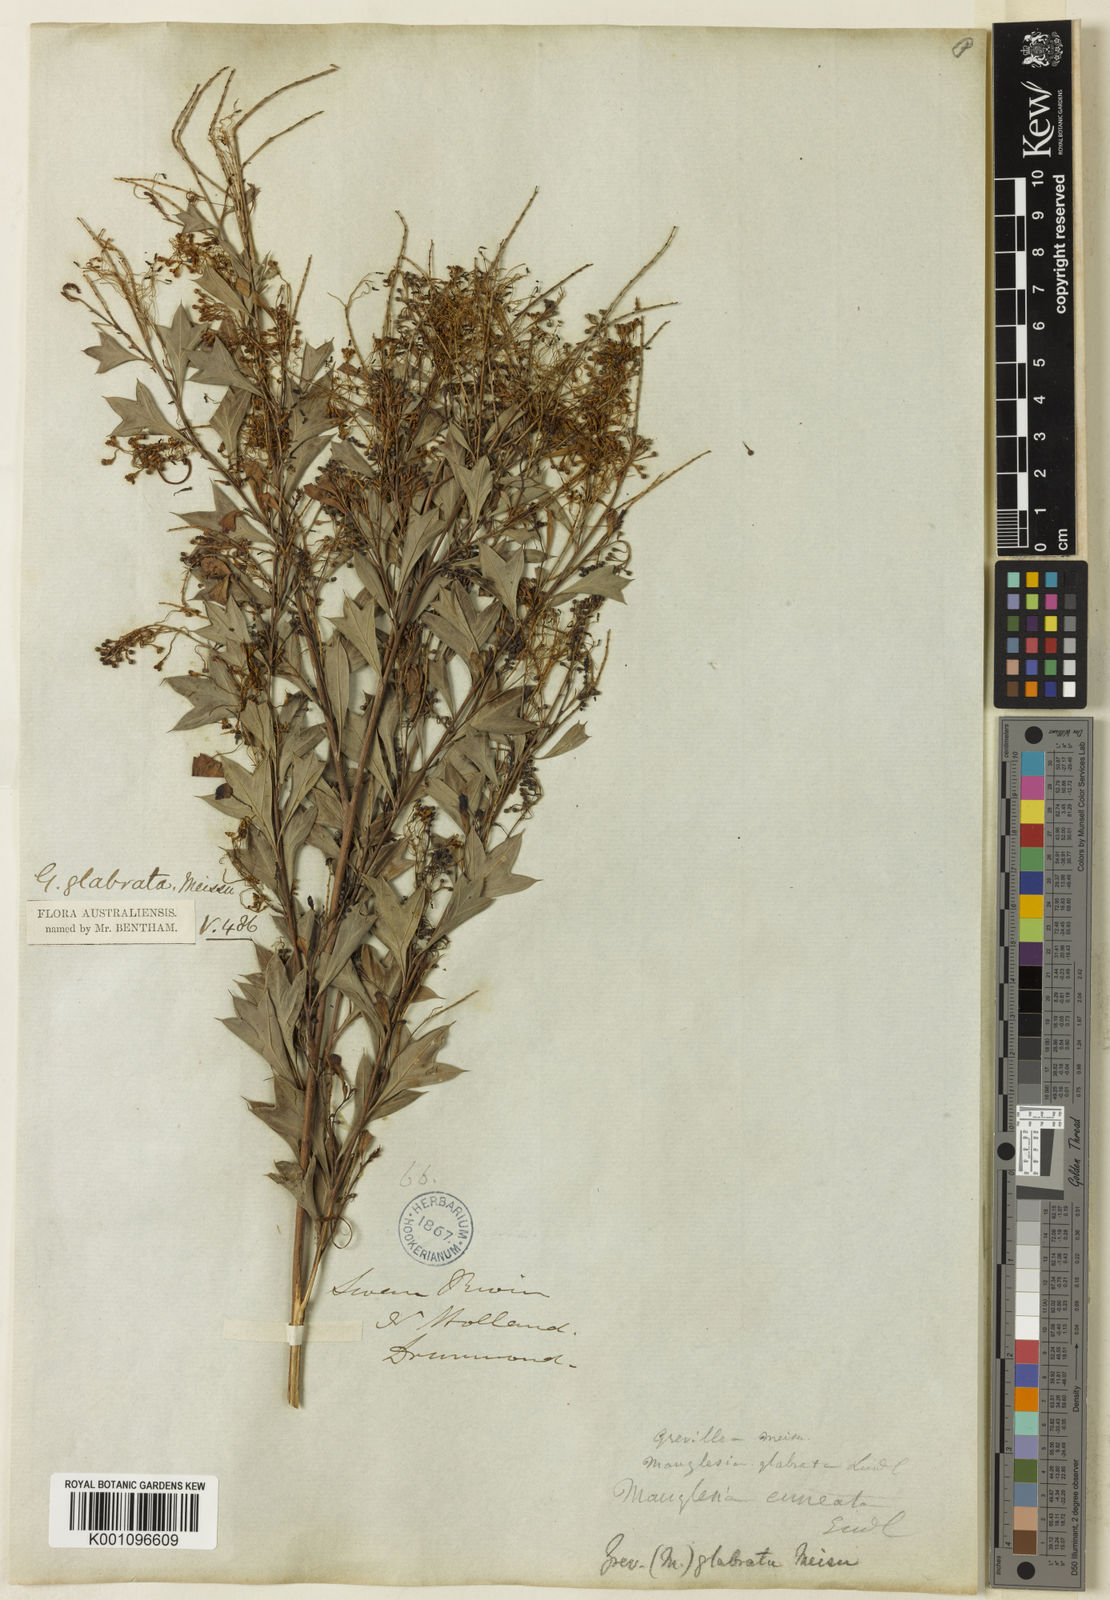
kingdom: Plantae
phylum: Tracheophyta
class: Magnoliopsida
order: Proteales
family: Proteaceae
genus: Grevillea
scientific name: Grevillea manglesii
